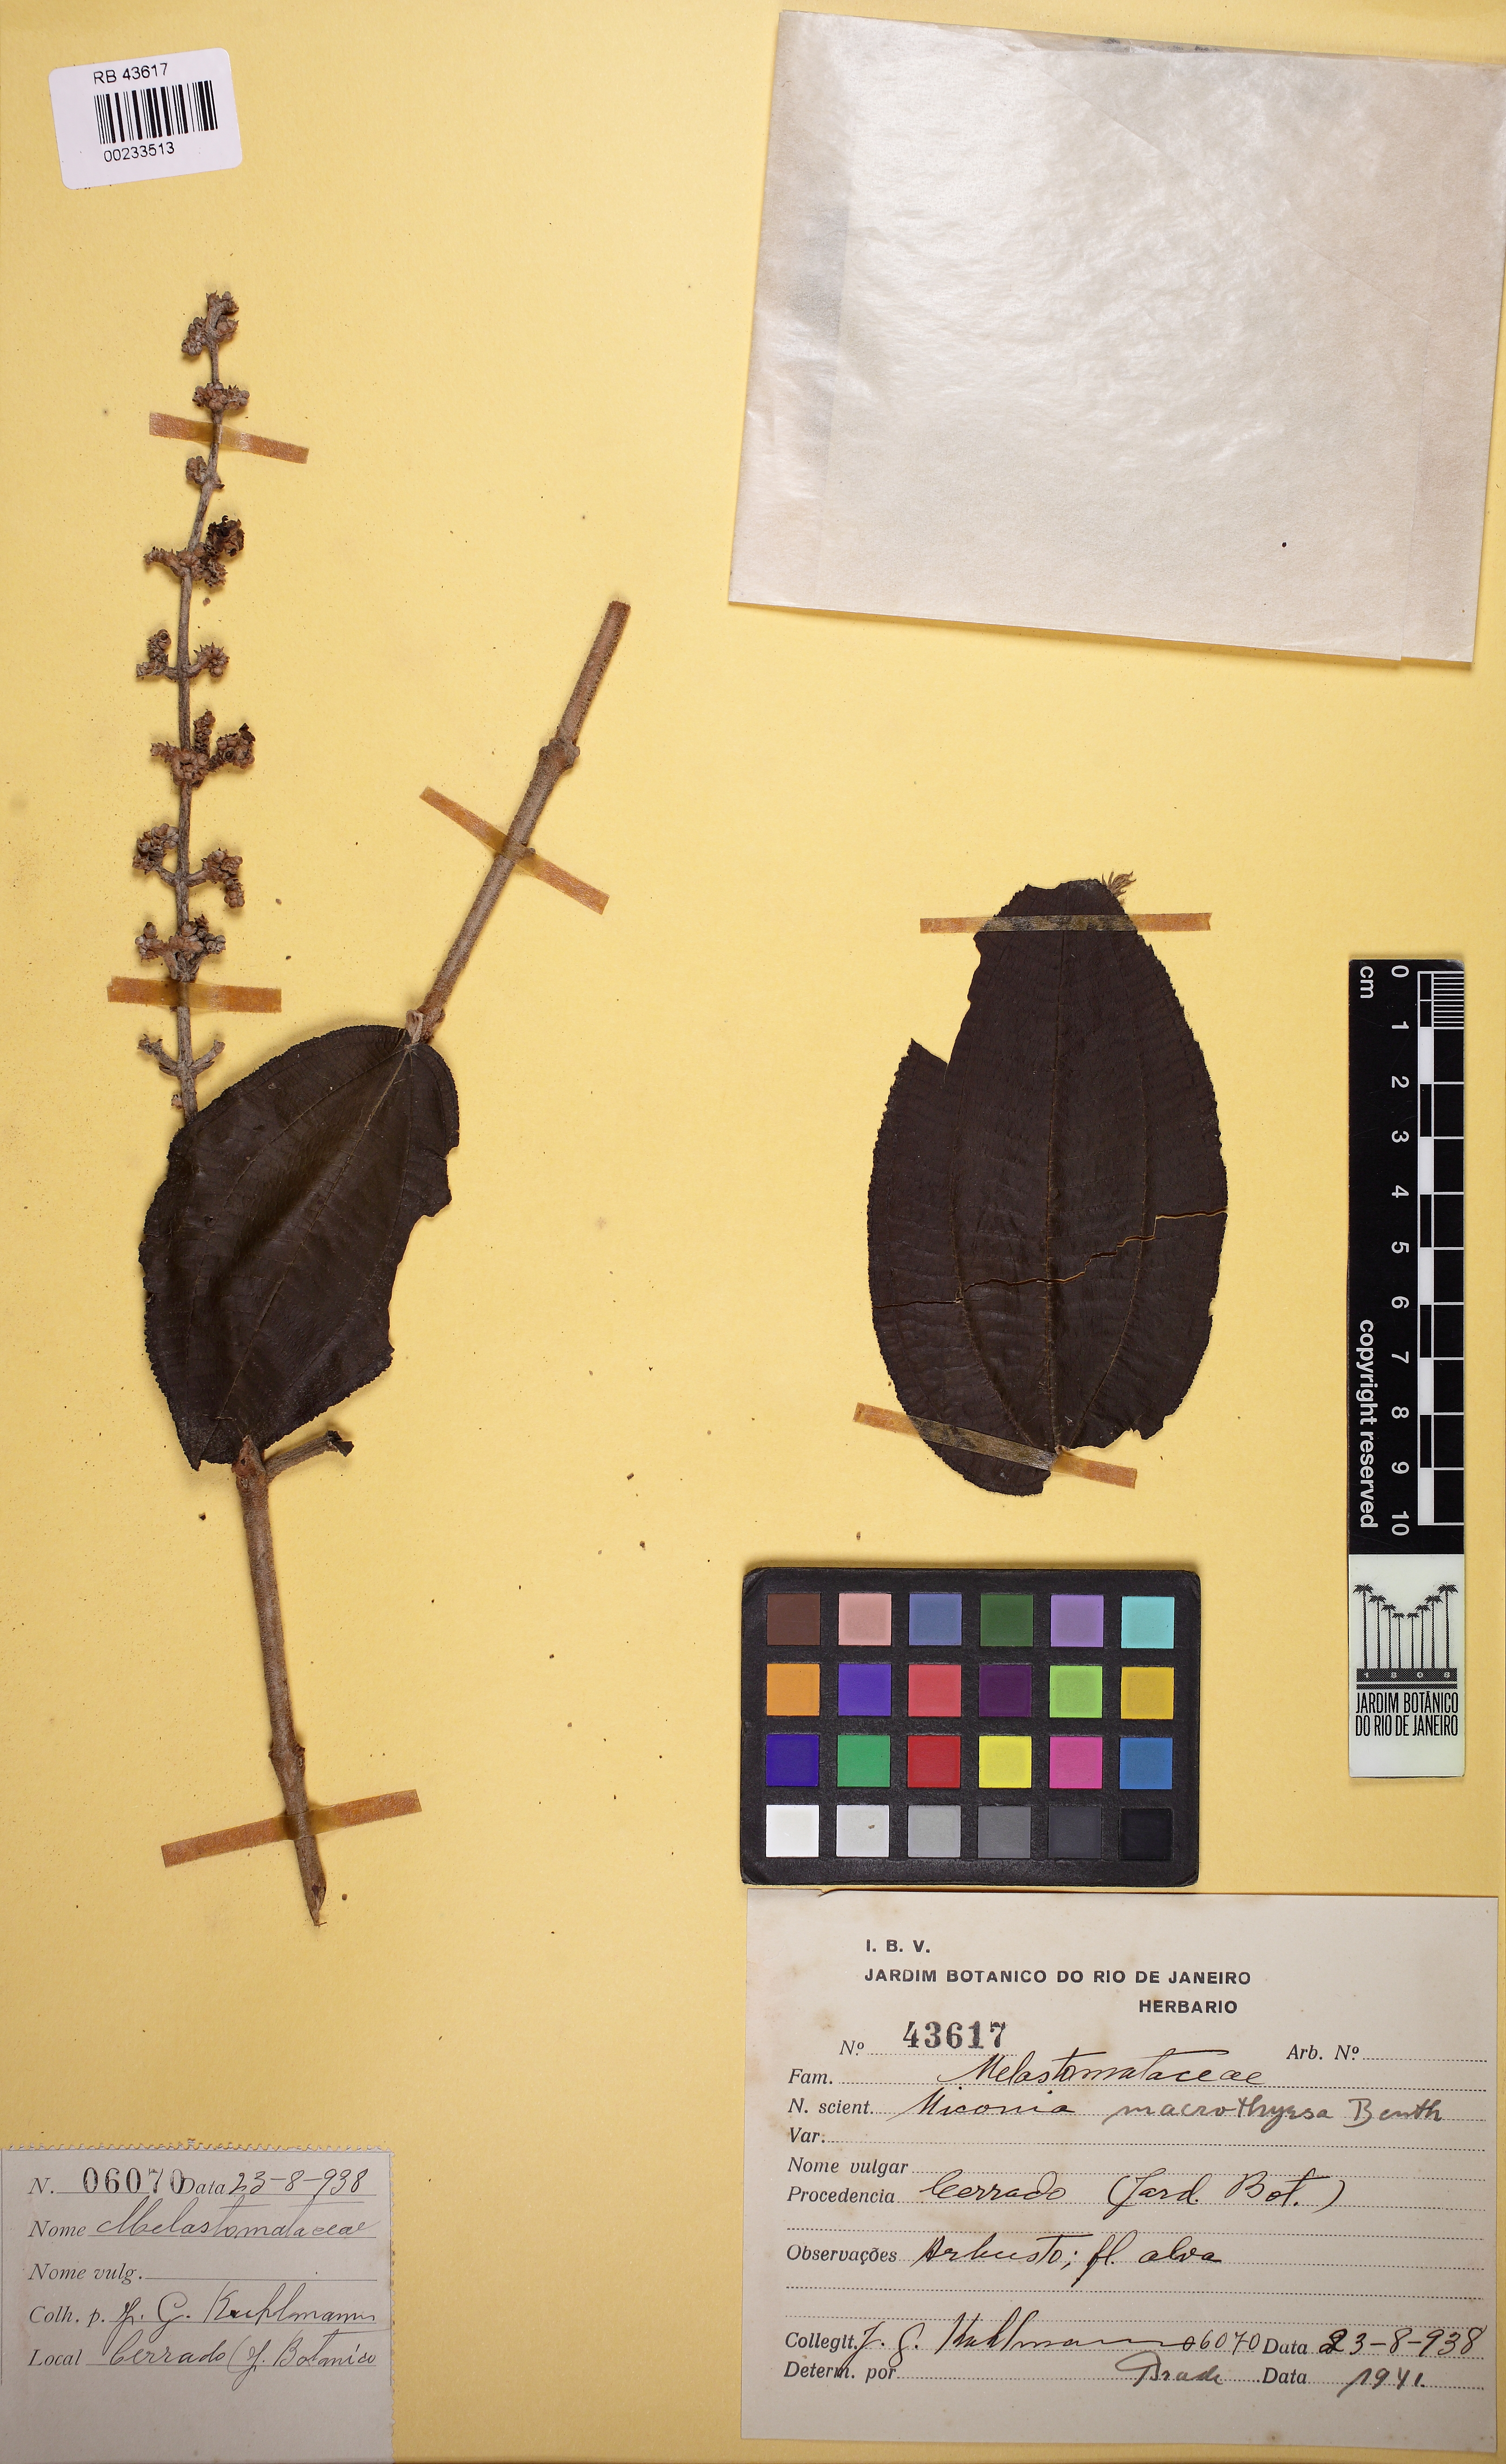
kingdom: Plantae
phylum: Tracheophyta
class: Magnoliopsida
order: Myrtales
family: Melastomataceae
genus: Miconia
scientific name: Miconia macrothyrsa
